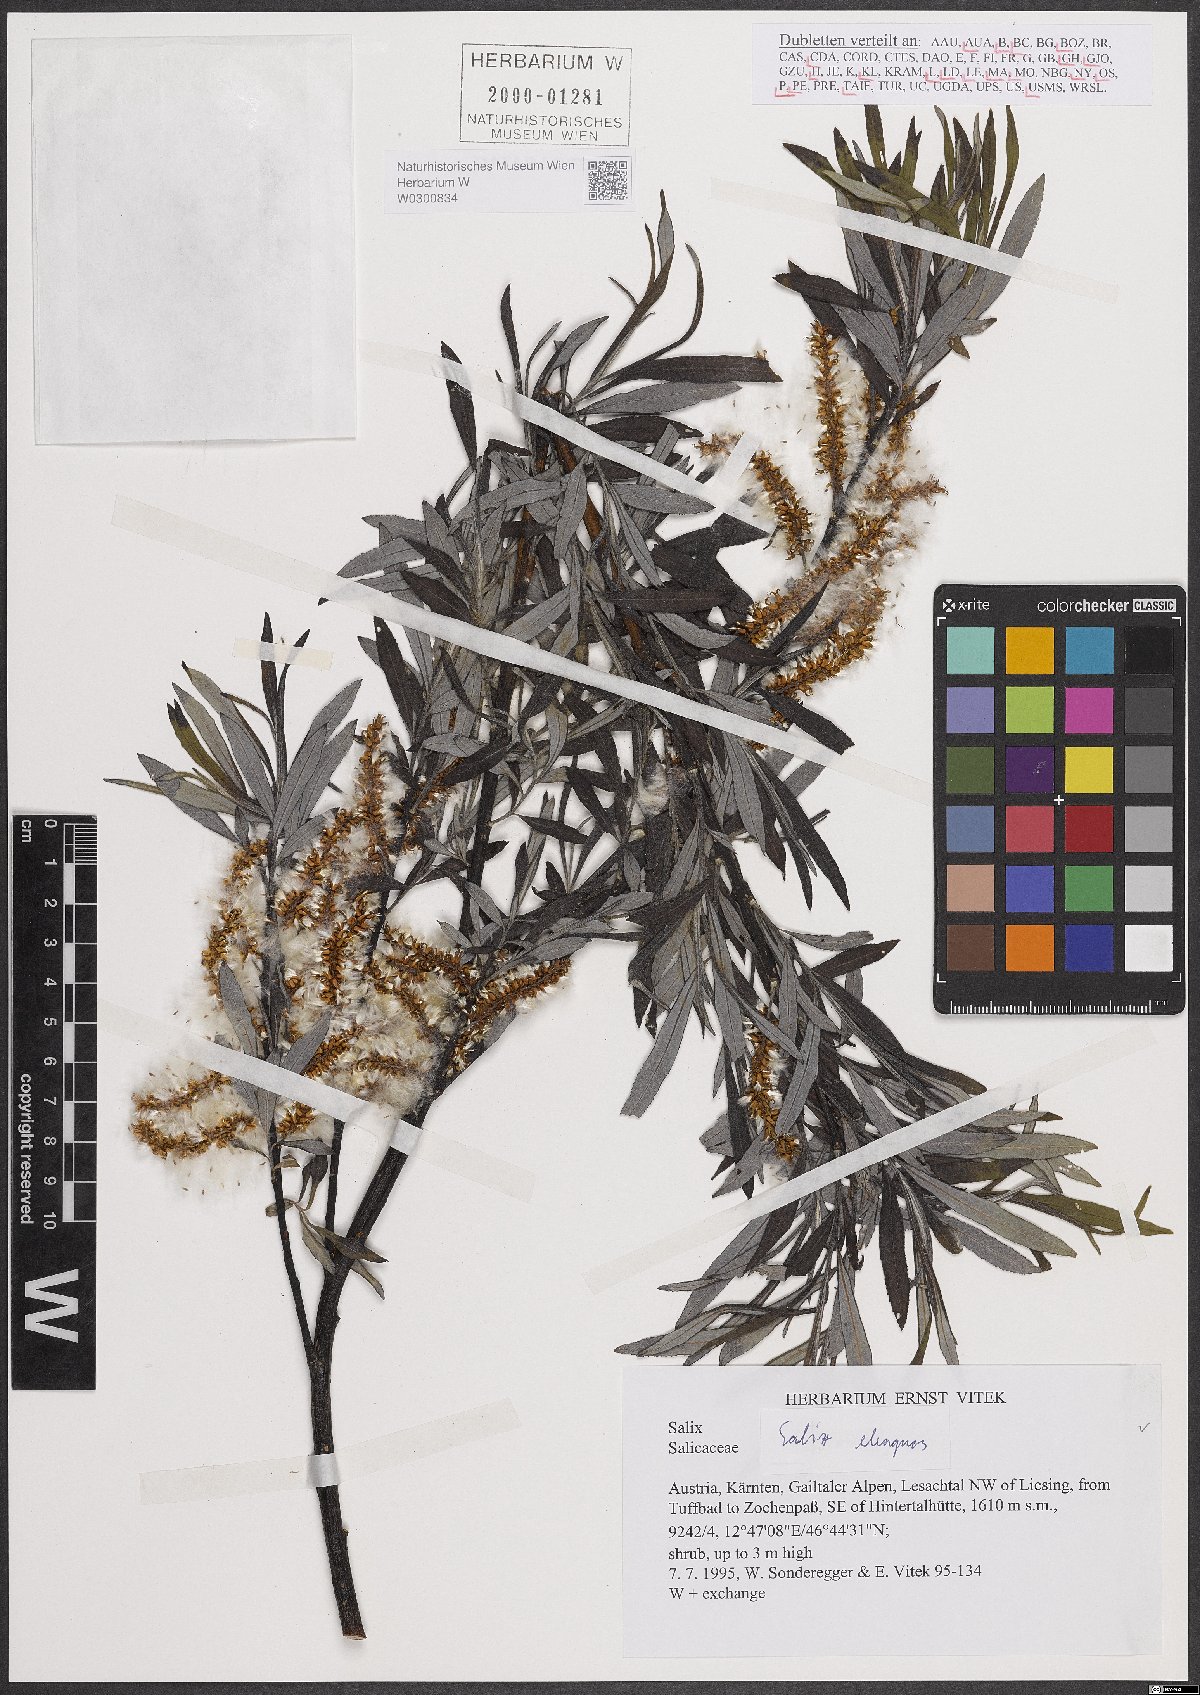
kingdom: Plantae
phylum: Tracheophyta
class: Magnoliopsida
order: Malpighiales
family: Salicaceae
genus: Salix
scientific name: Salix eleagnos
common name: Elaeagnus willow
